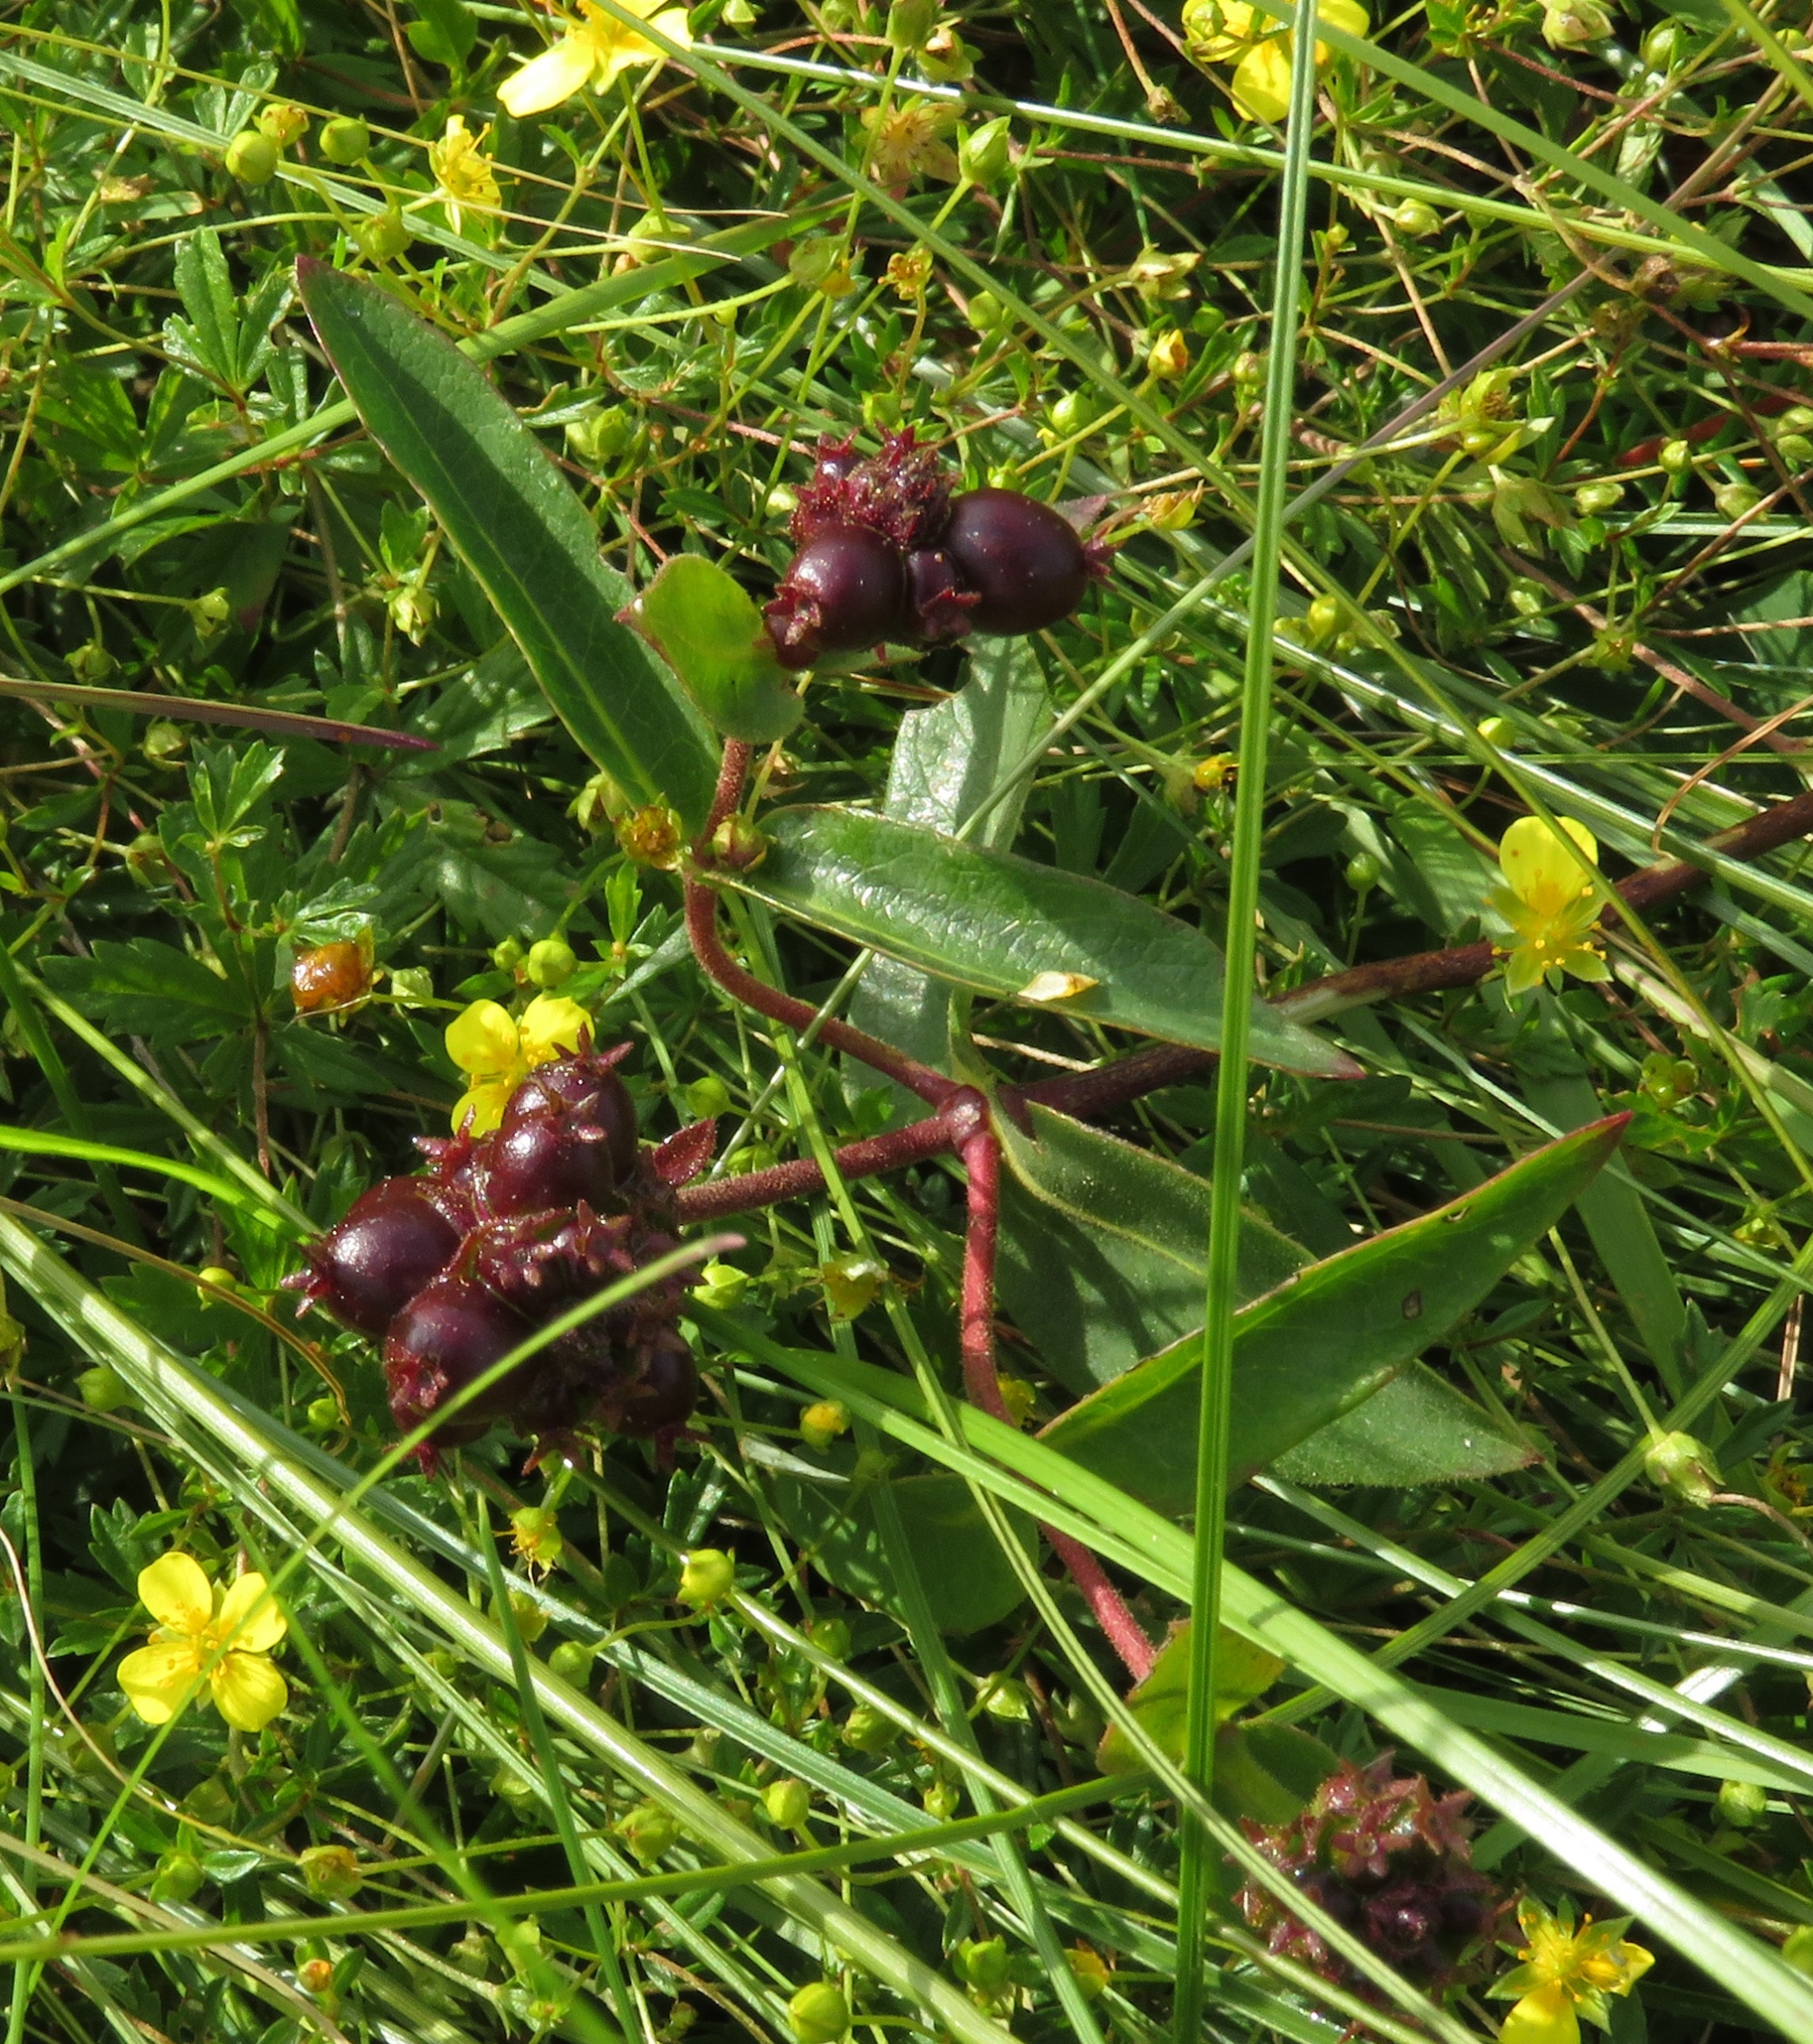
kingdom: Plantae
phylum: Tracheophyta
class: Magnoliopsida
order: Dipsacales
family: Caprifoliaceae
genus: Lonicera
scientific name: Lonicera acuminata
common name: Henrys gedeblad
